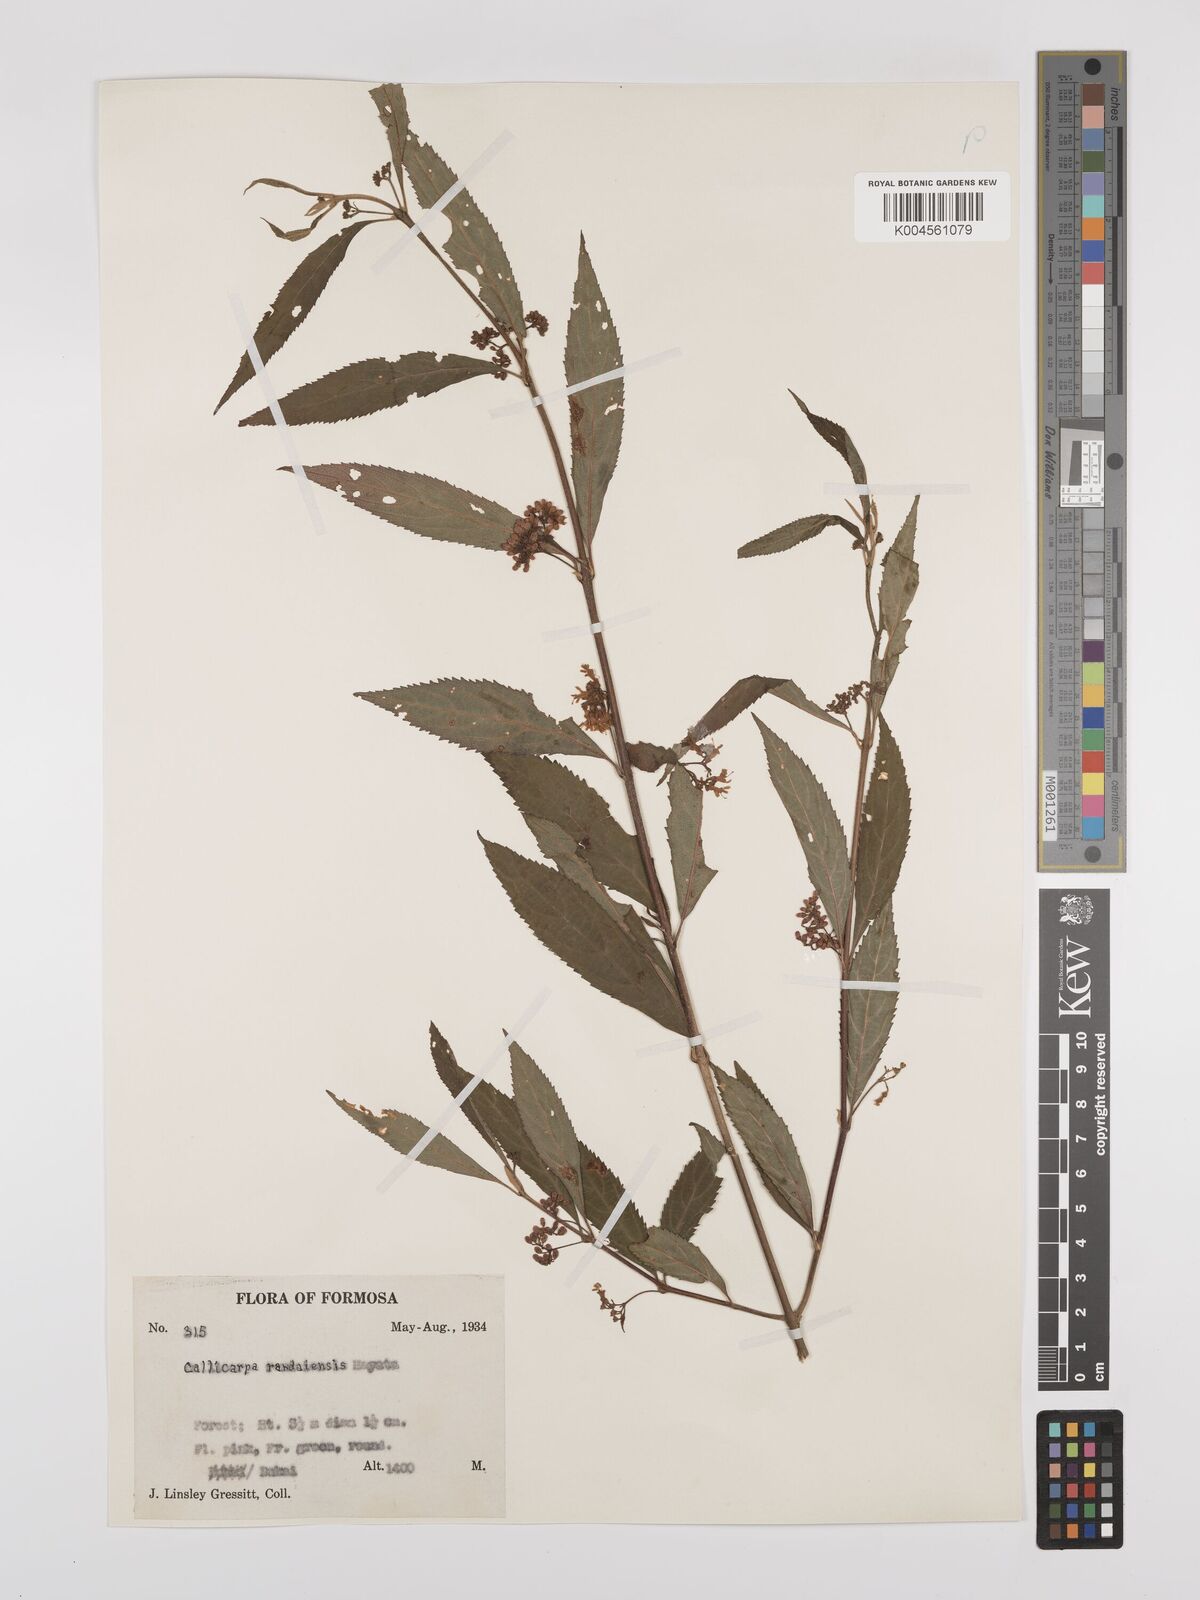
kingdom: Plantae
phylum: Tracheophyta
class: Magnoliopsida
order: Lamiales
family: Lamiaceae
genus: Callicarpa
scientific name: Callicarpa randaiensis
